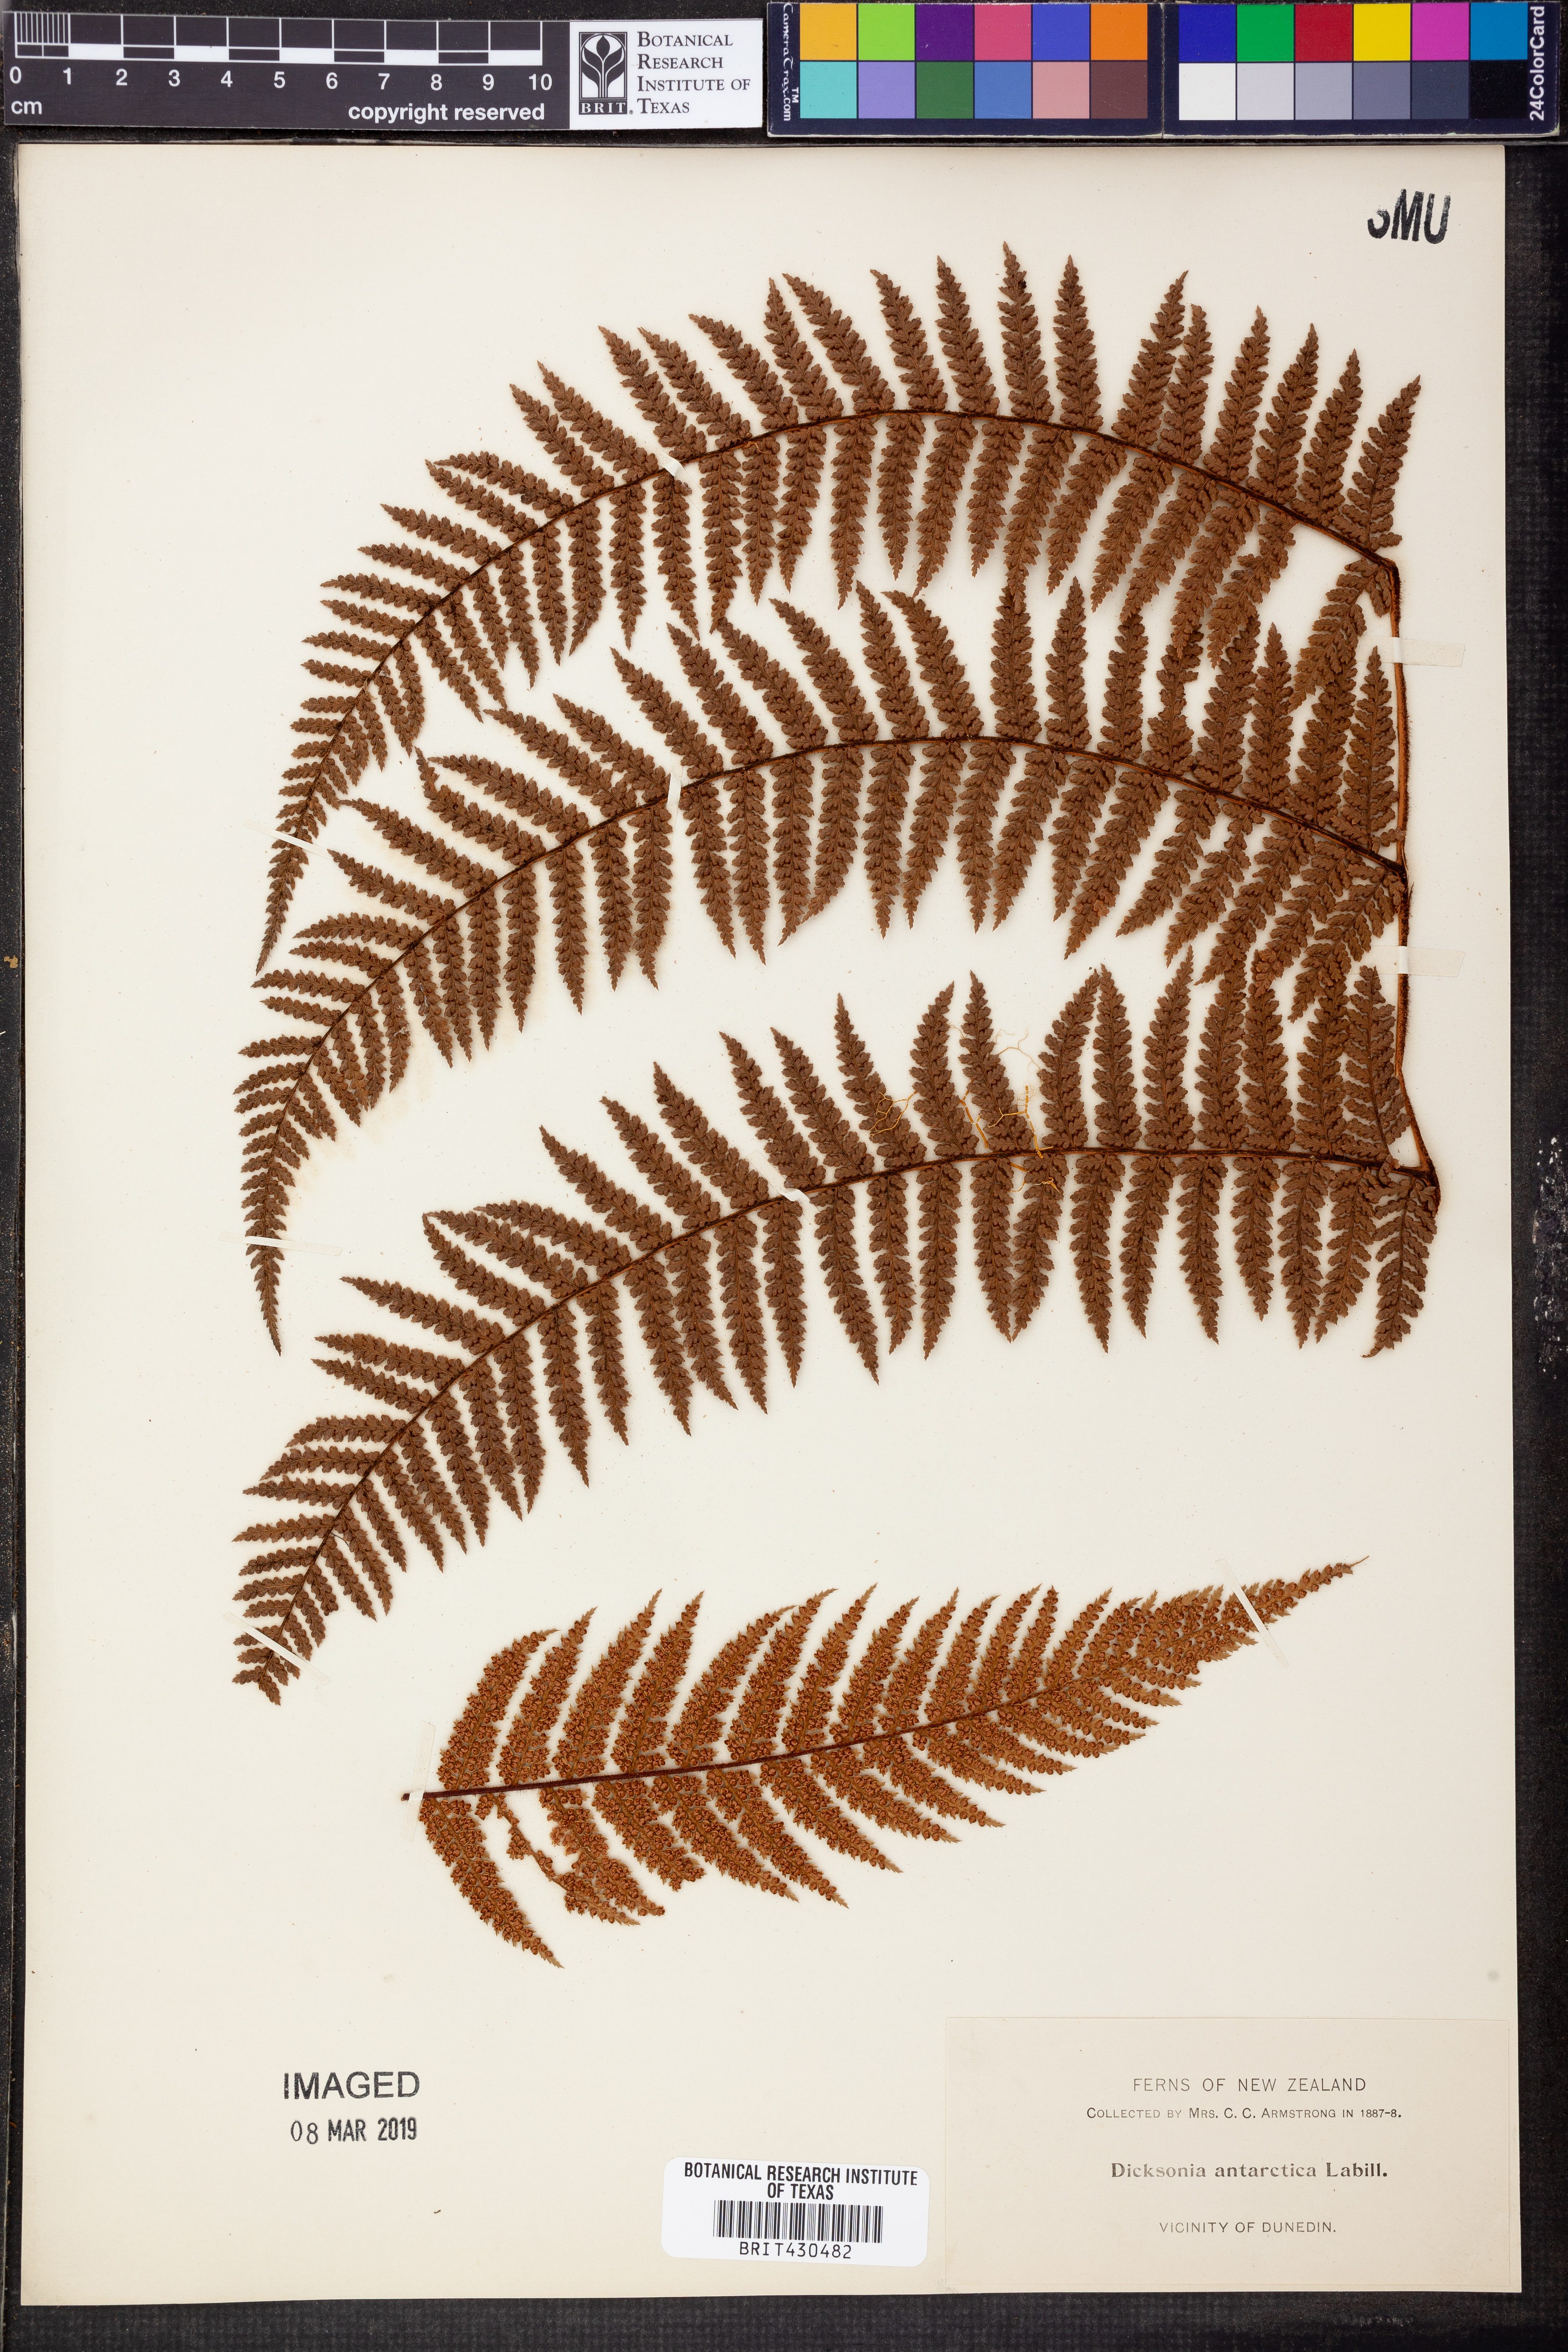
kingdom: Plantae
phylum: Tracheophyta
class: Polypodiopsida
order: Cyatheales
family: Dicksoniaceae
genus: Dicksonia
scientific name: Dicksonia antarctica
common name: Australian treefern
